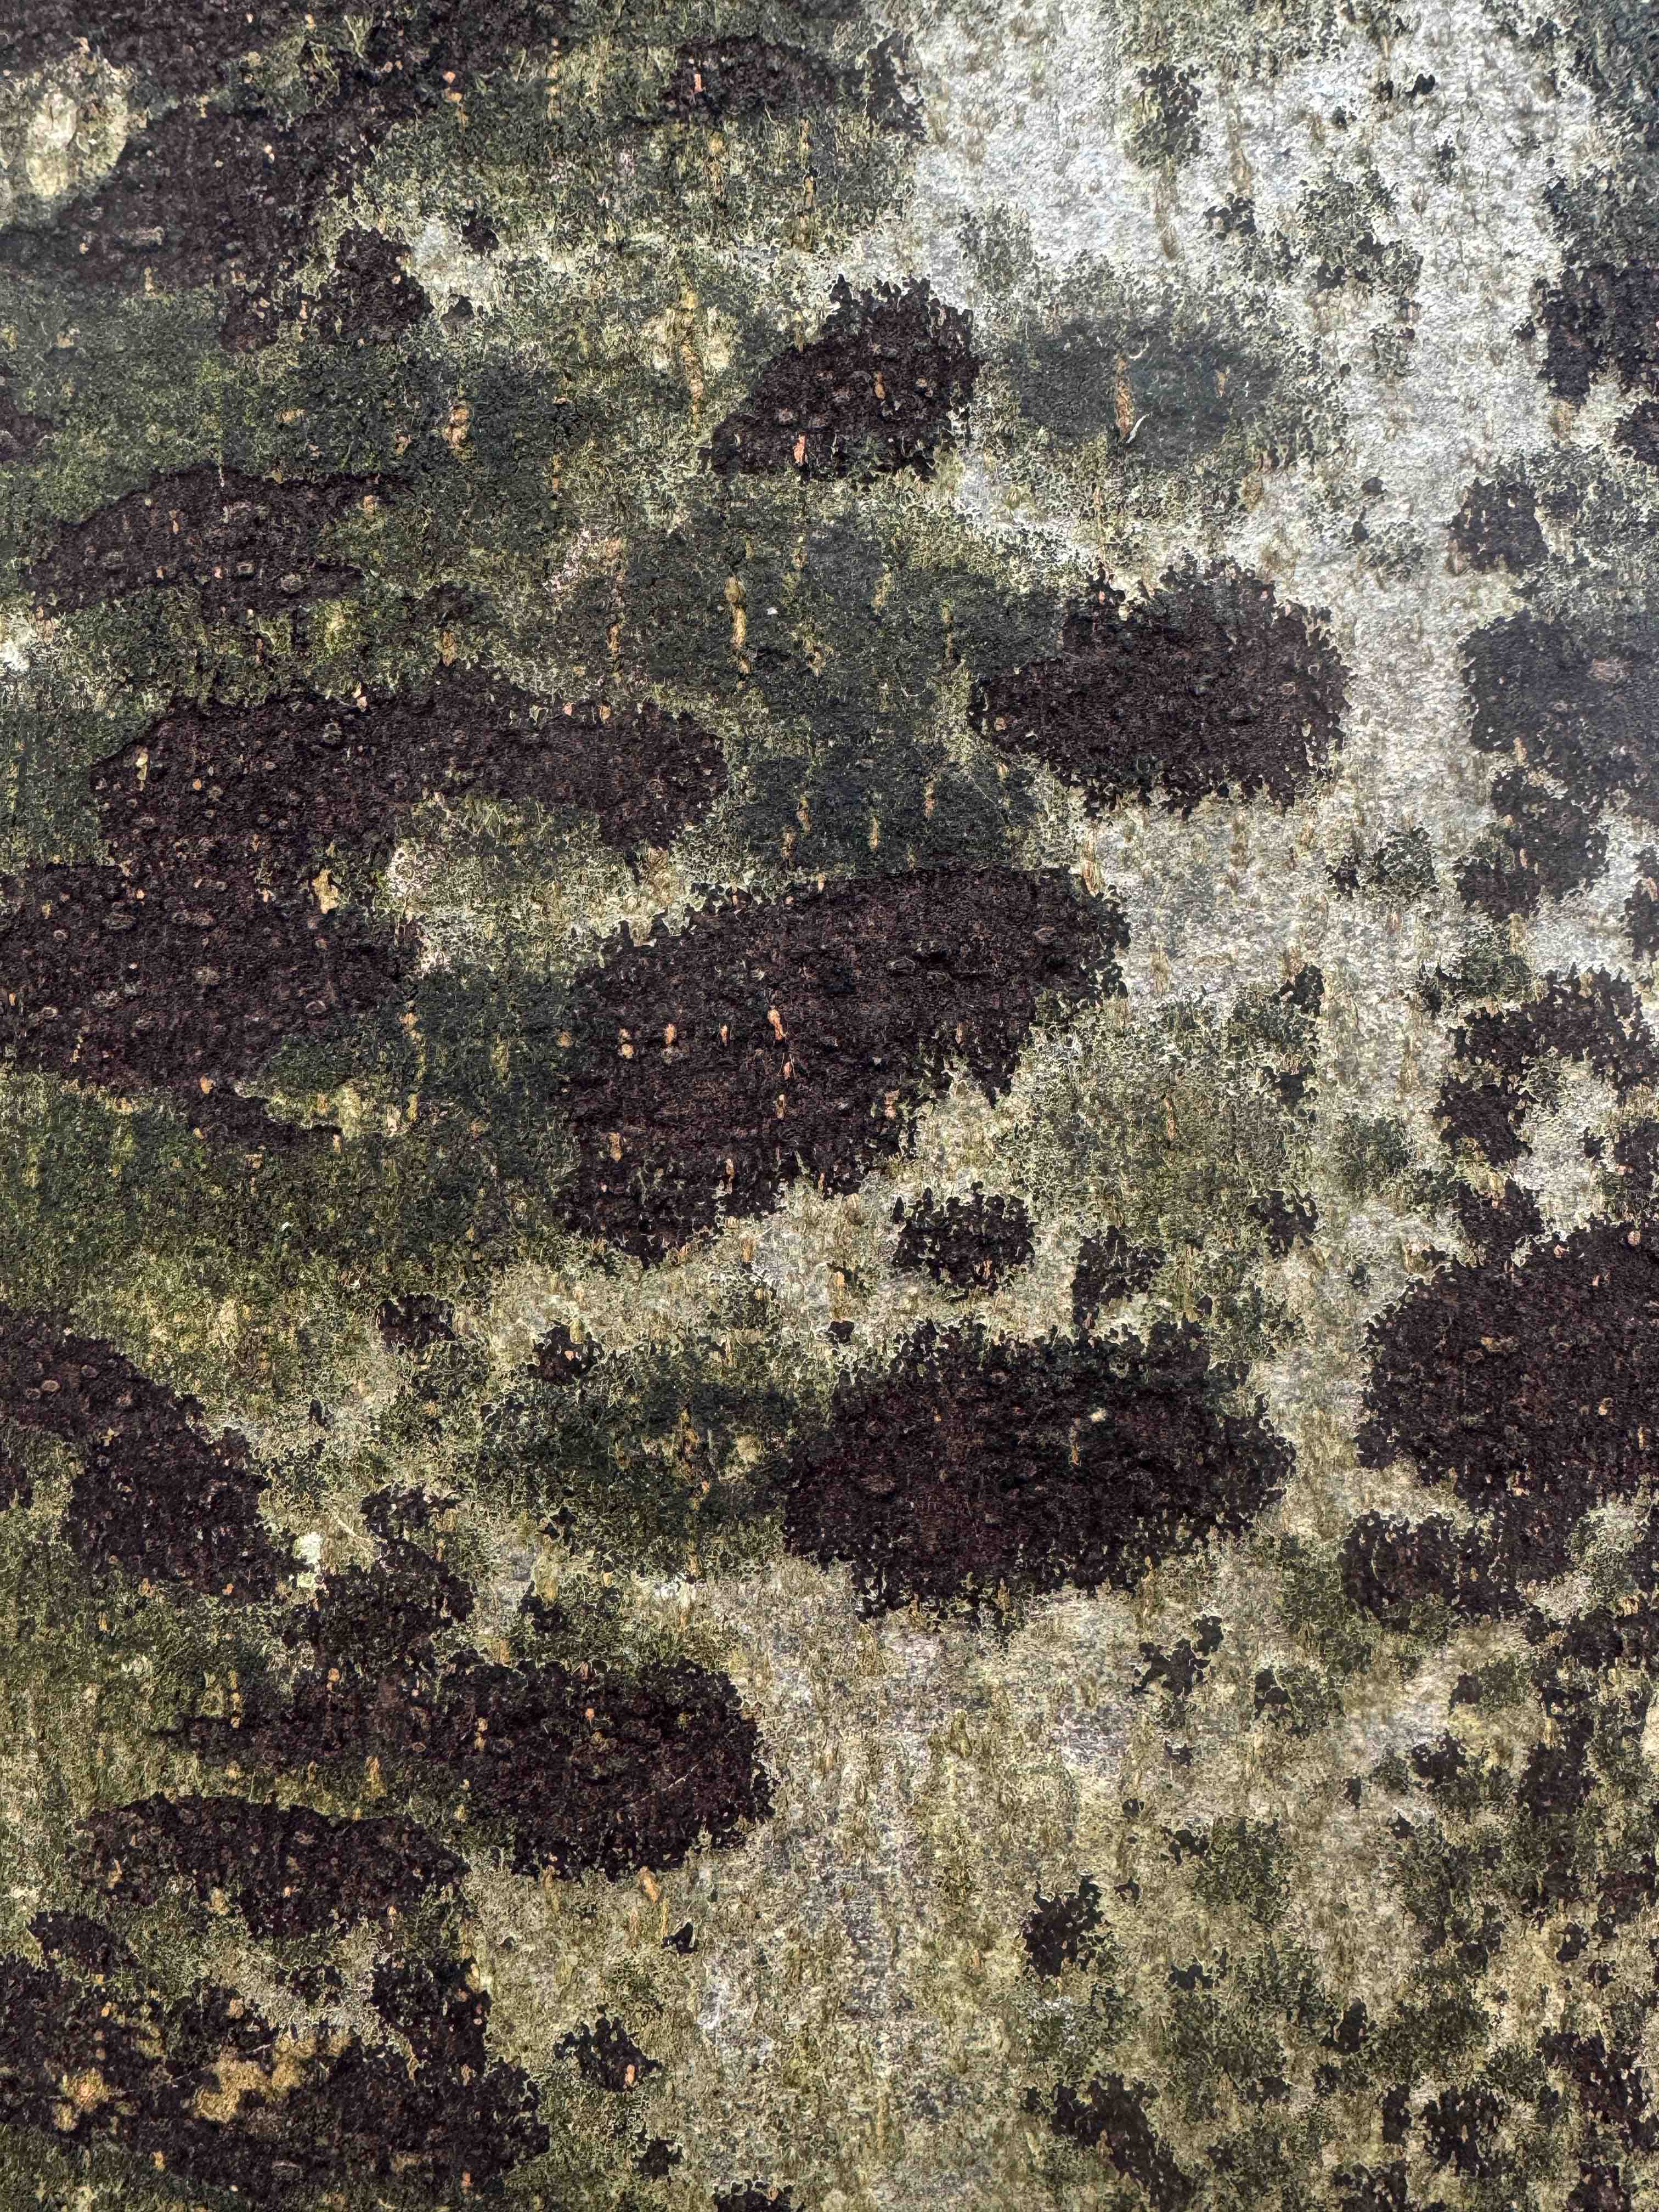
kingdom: Fungi
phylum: Ascomycota
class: Leotiomycetes
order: Rhytismatales
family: Ascodichaenaceae
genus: Ascodichaena
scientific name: Ascodichaena rugosa
